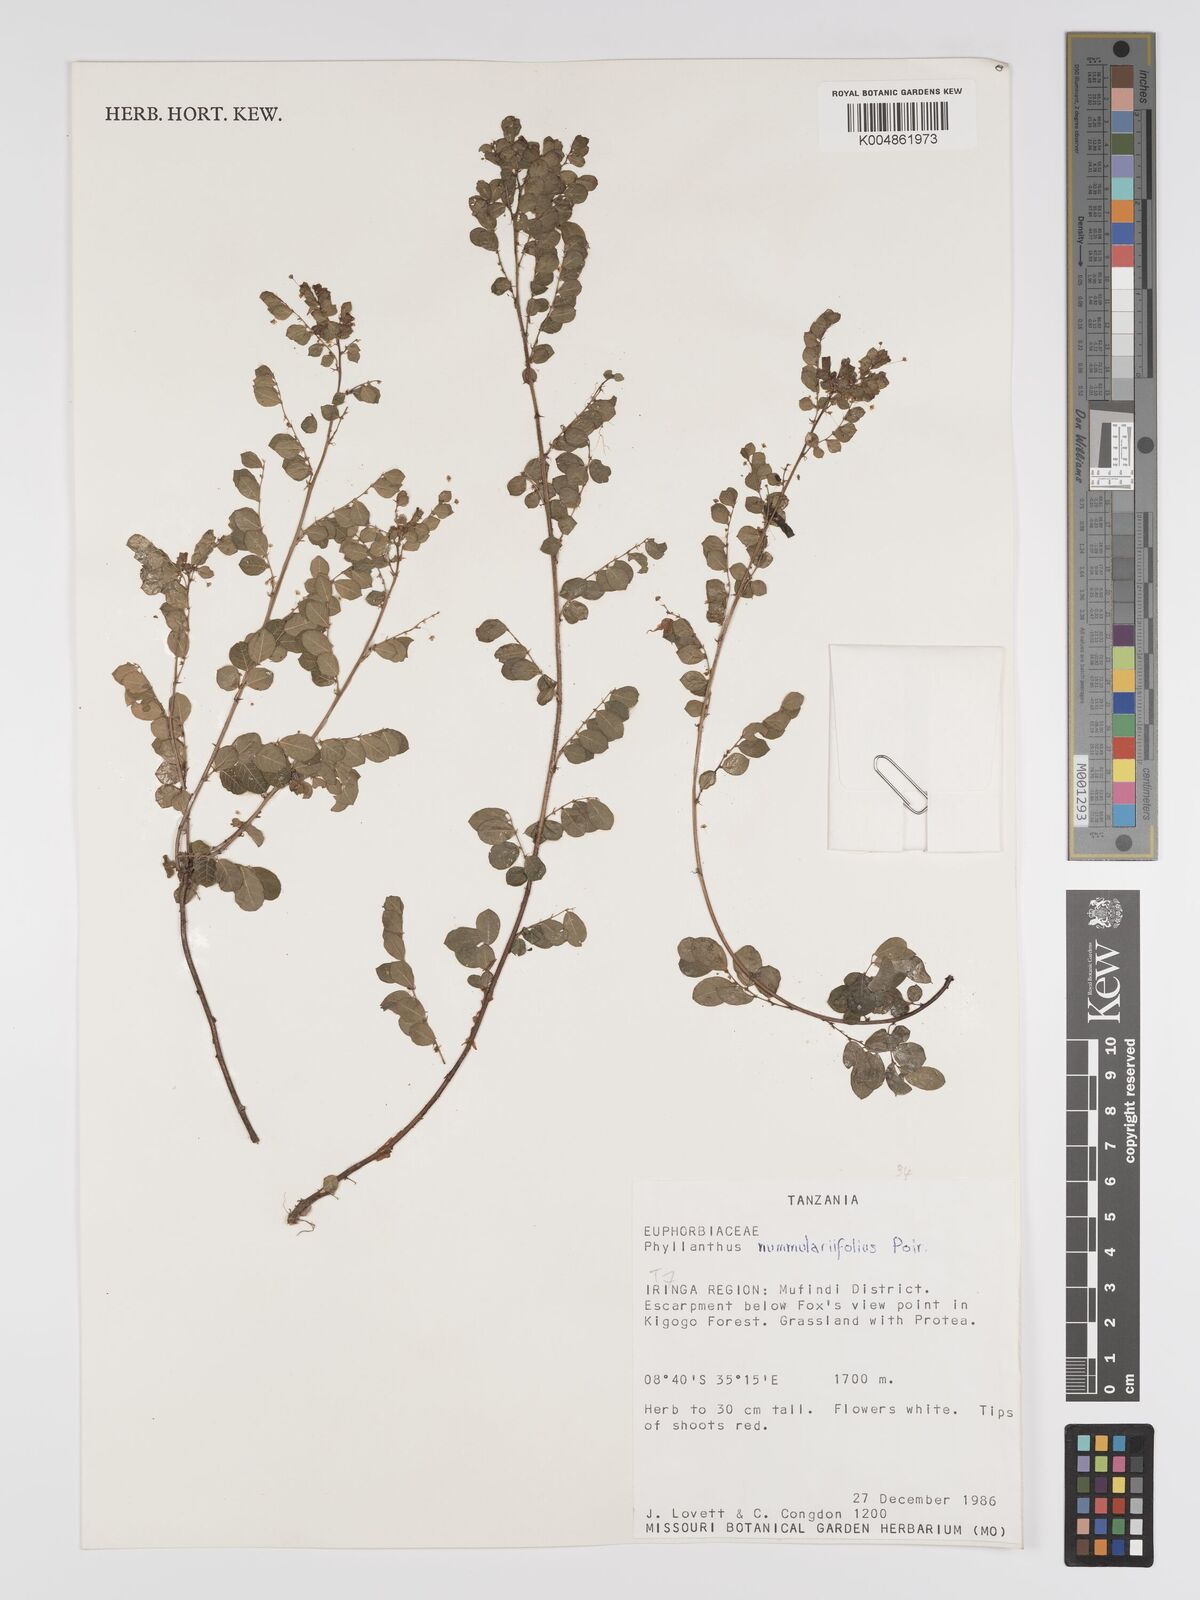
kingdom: Plantae
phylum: Tracheophyta
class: Magnoliopsida
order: Malpighiales
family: Phyllanthaceae
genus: Phyllanthus
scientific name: Phyllanthus nummulariifolius
